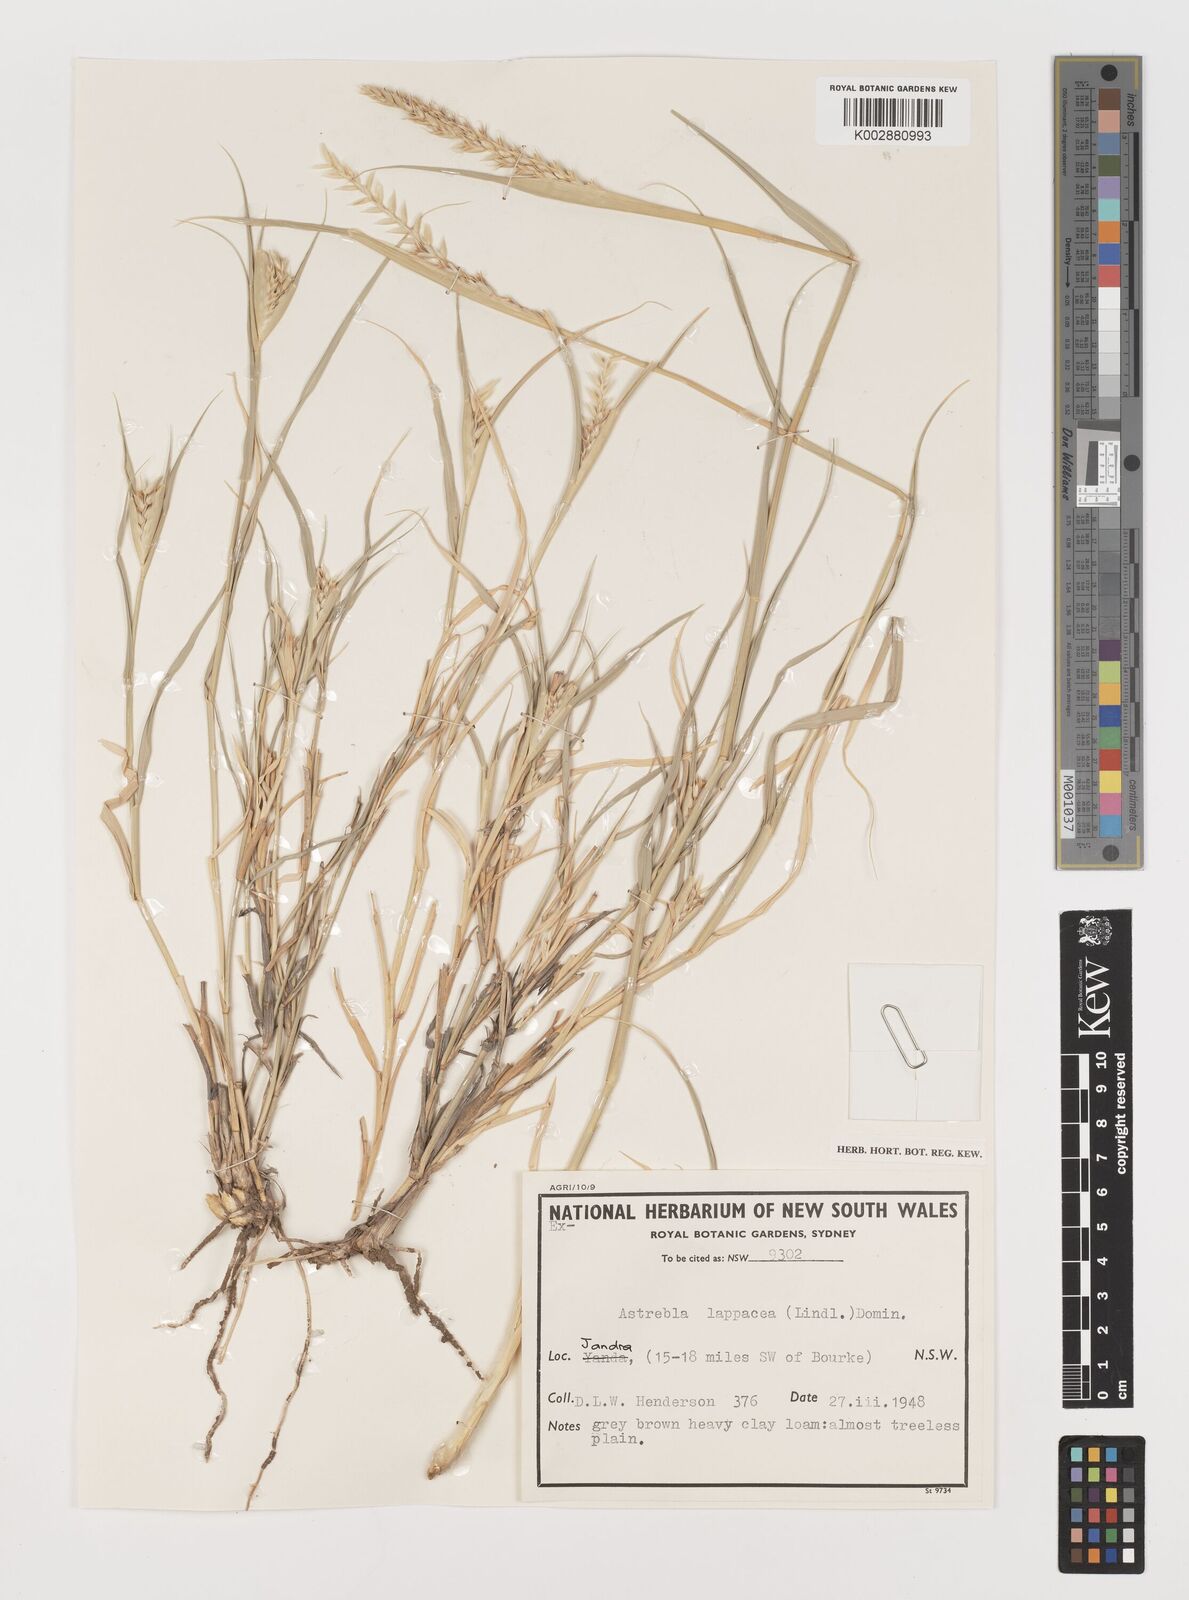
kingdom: Plantae
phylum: Tracheophyta
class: Liliopsida
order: Poales
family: Poaceae
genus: Astrebla
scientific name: Astrebla lappacea
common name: Curly mitchell grass
